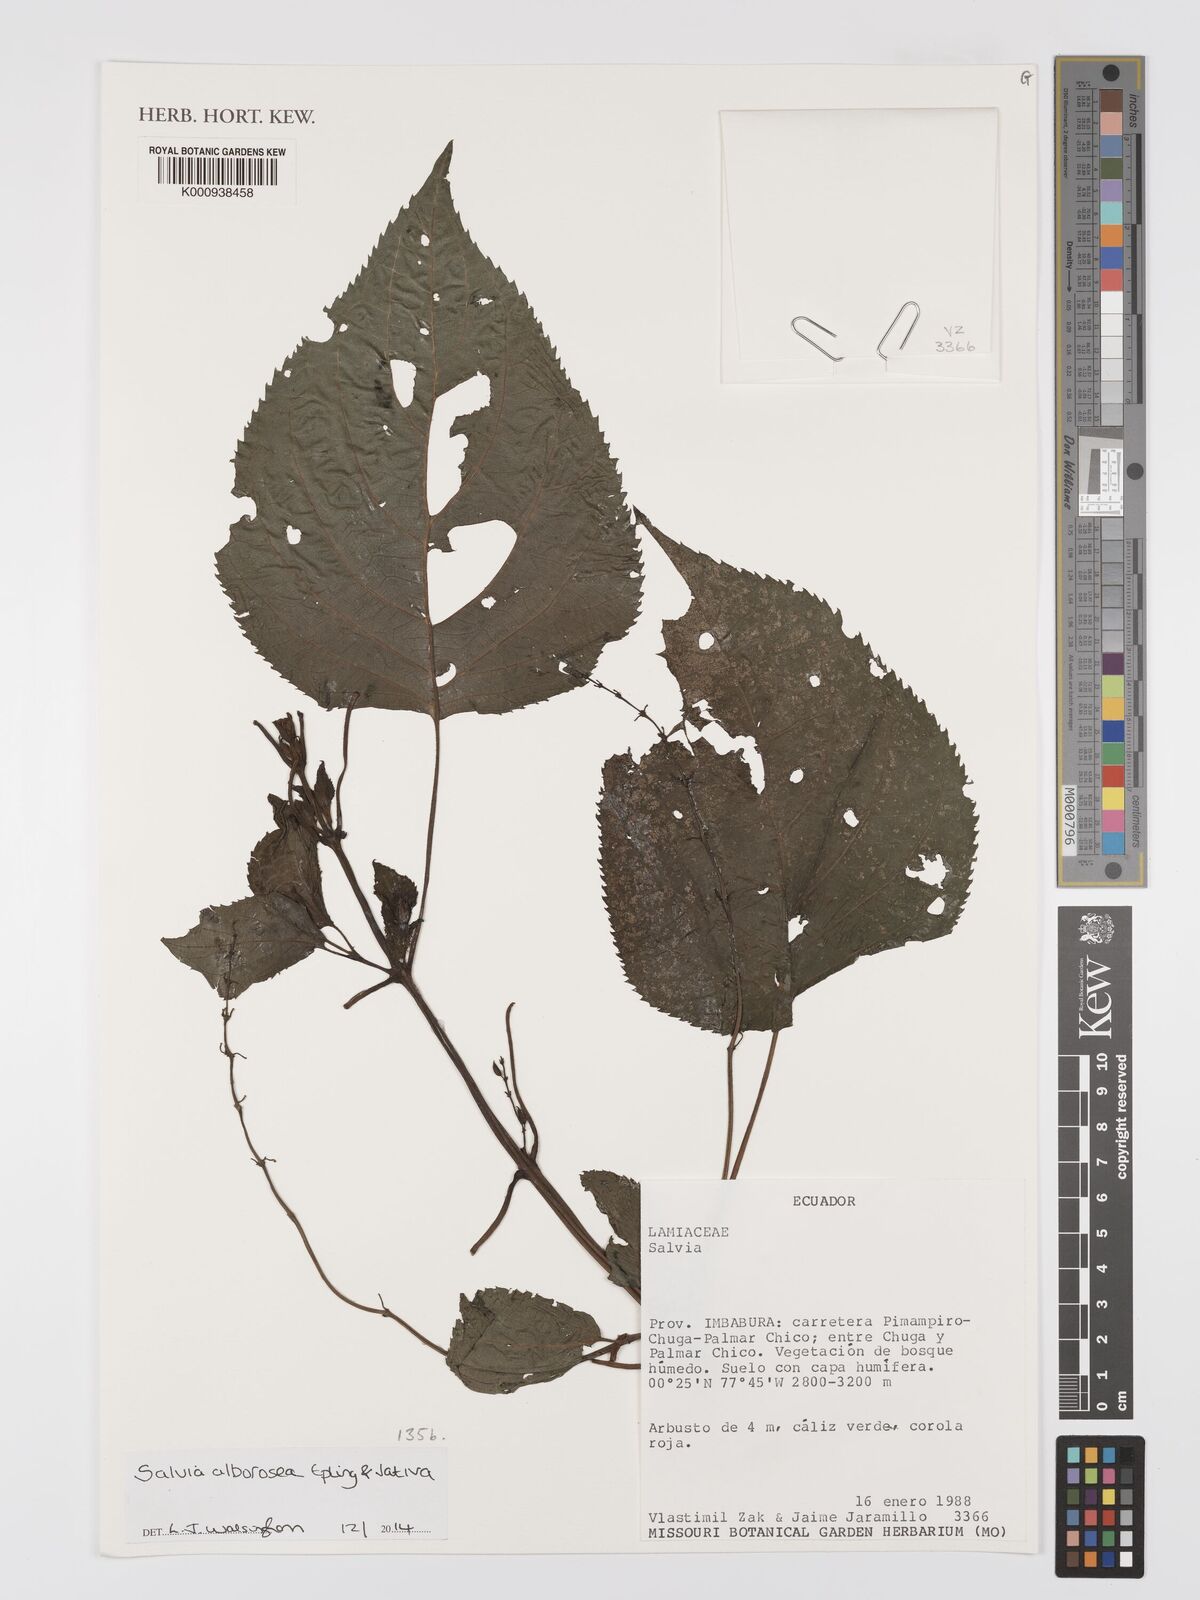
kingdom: Plantae
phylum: Tracheophyta
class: Magnoliopsida
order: Lamiales
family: Lamiaceae
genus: Salvia
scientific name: Salvia alborosea
